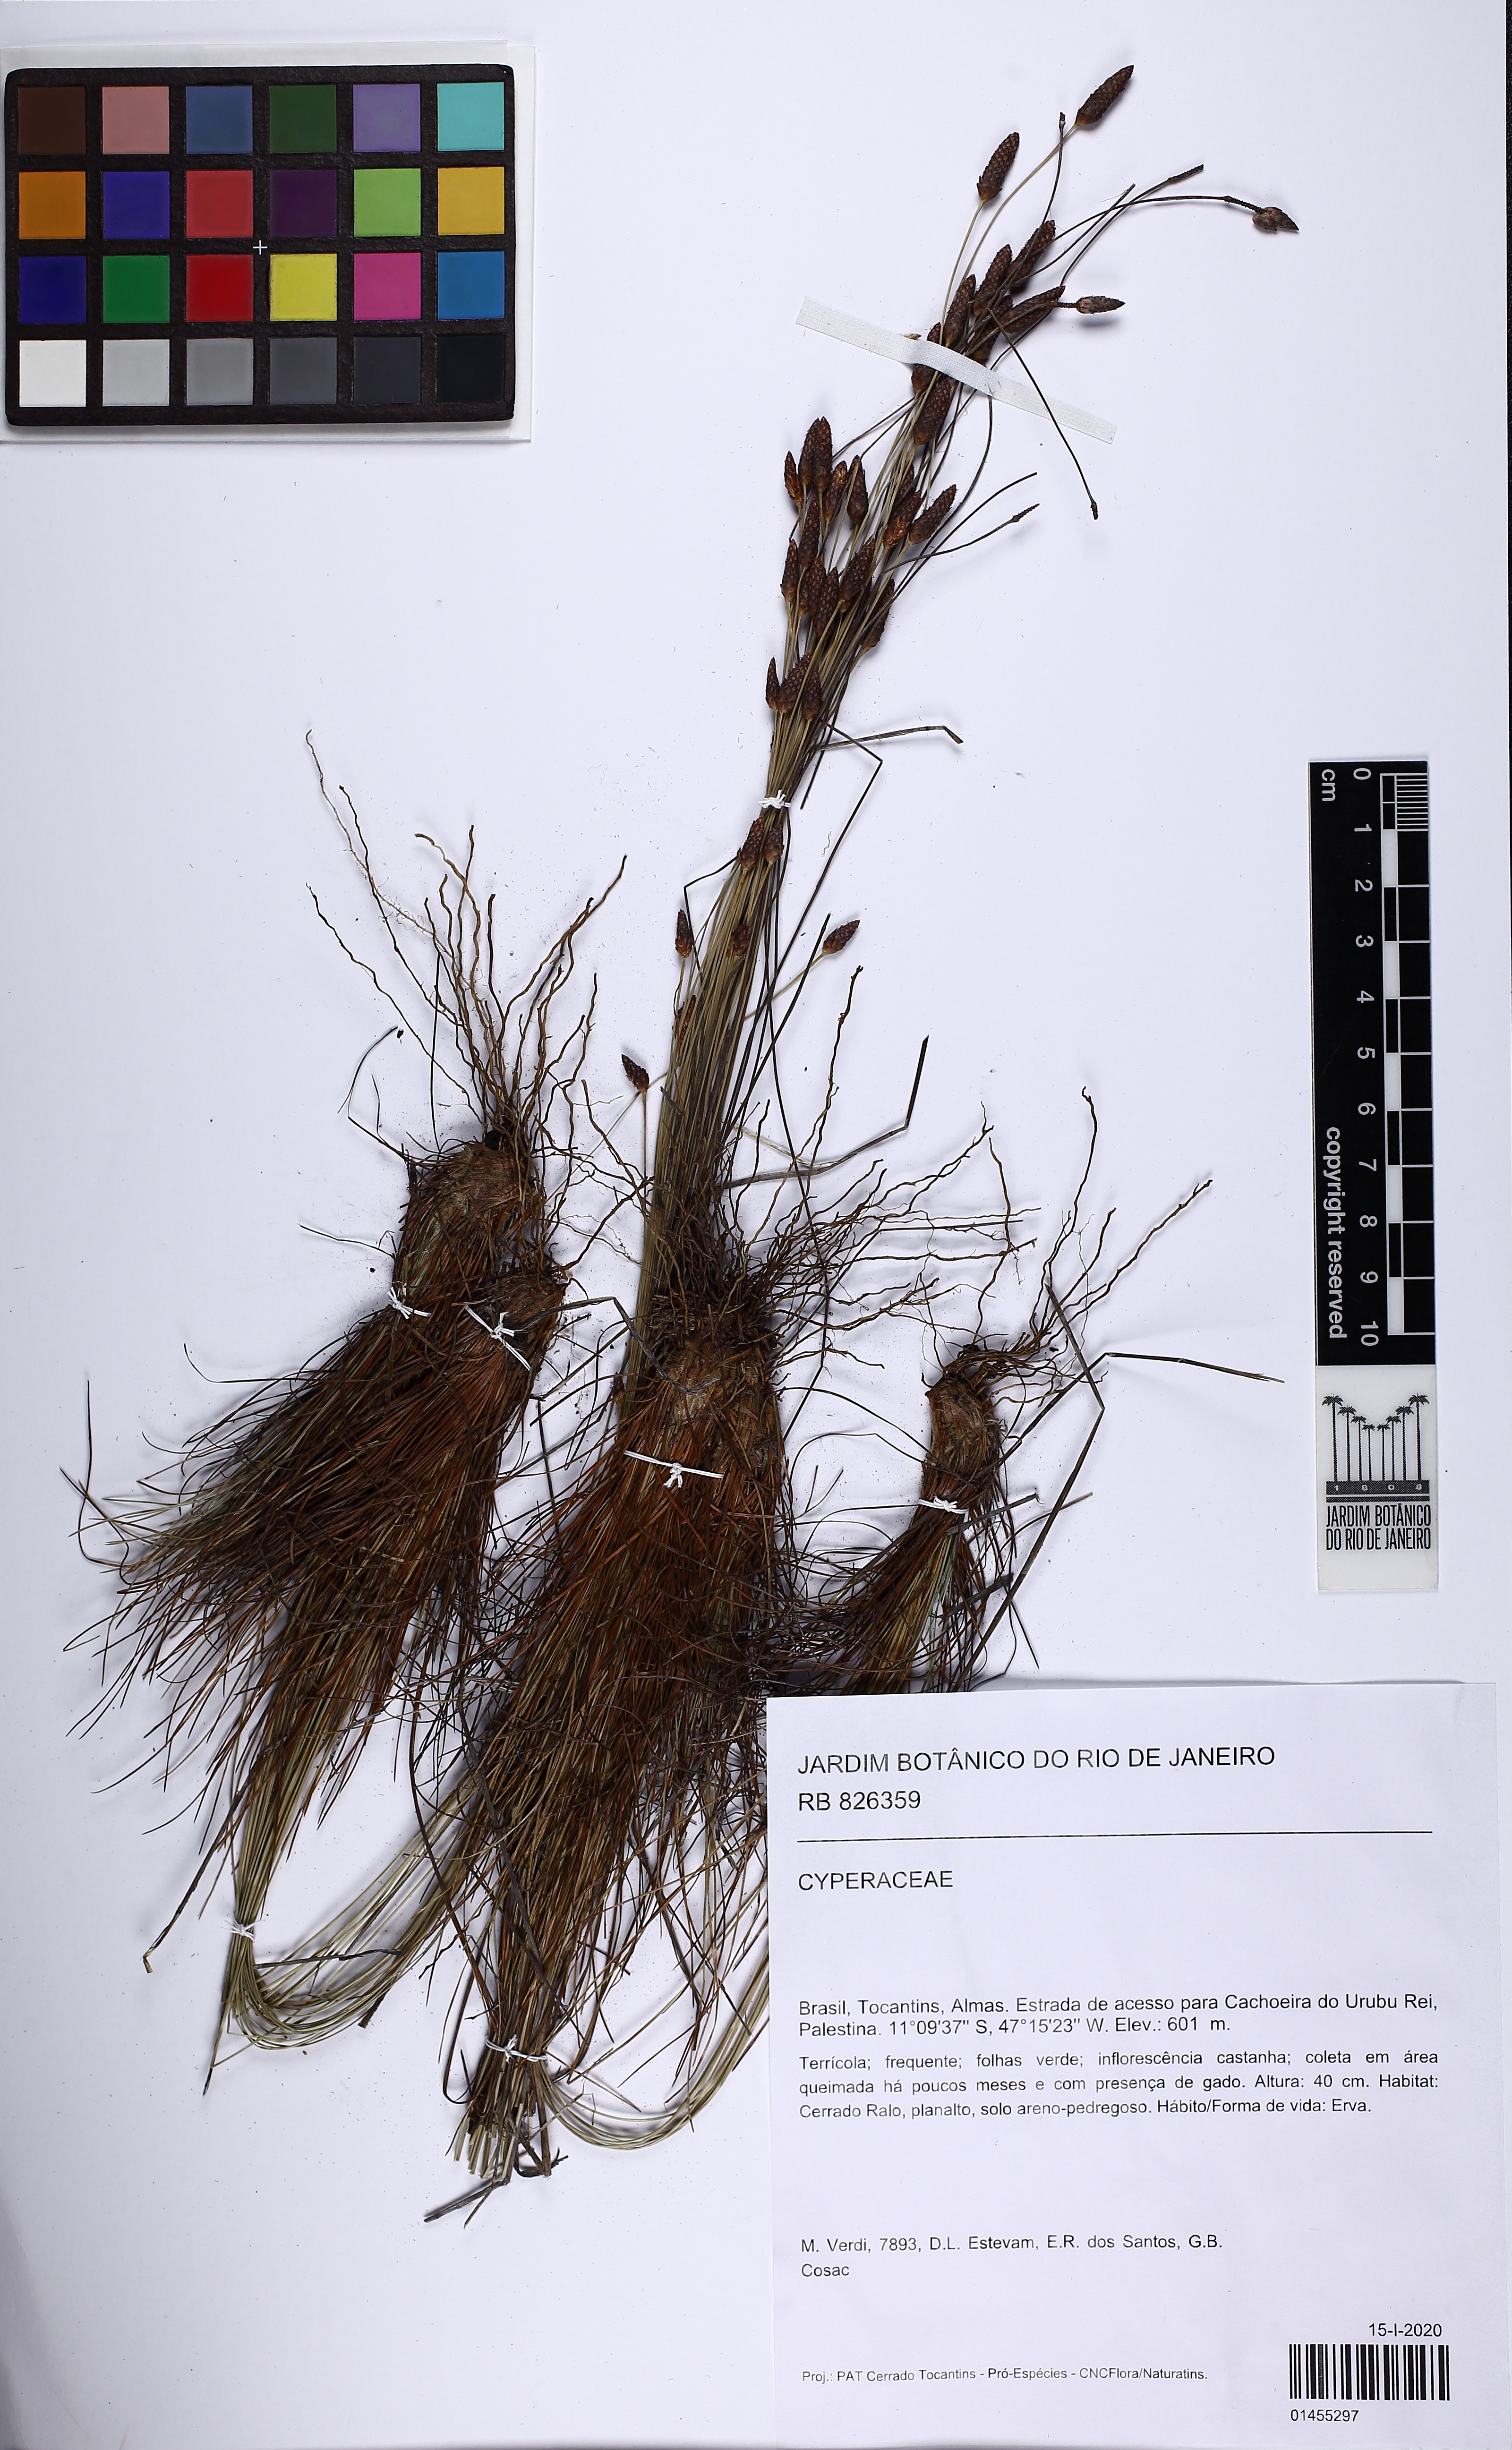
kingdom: Plantae
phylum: Tracheophyta
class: Liliopsida
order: Poales
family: Cyperaceae
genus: Bulbostylis
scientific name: Bulbostylis
